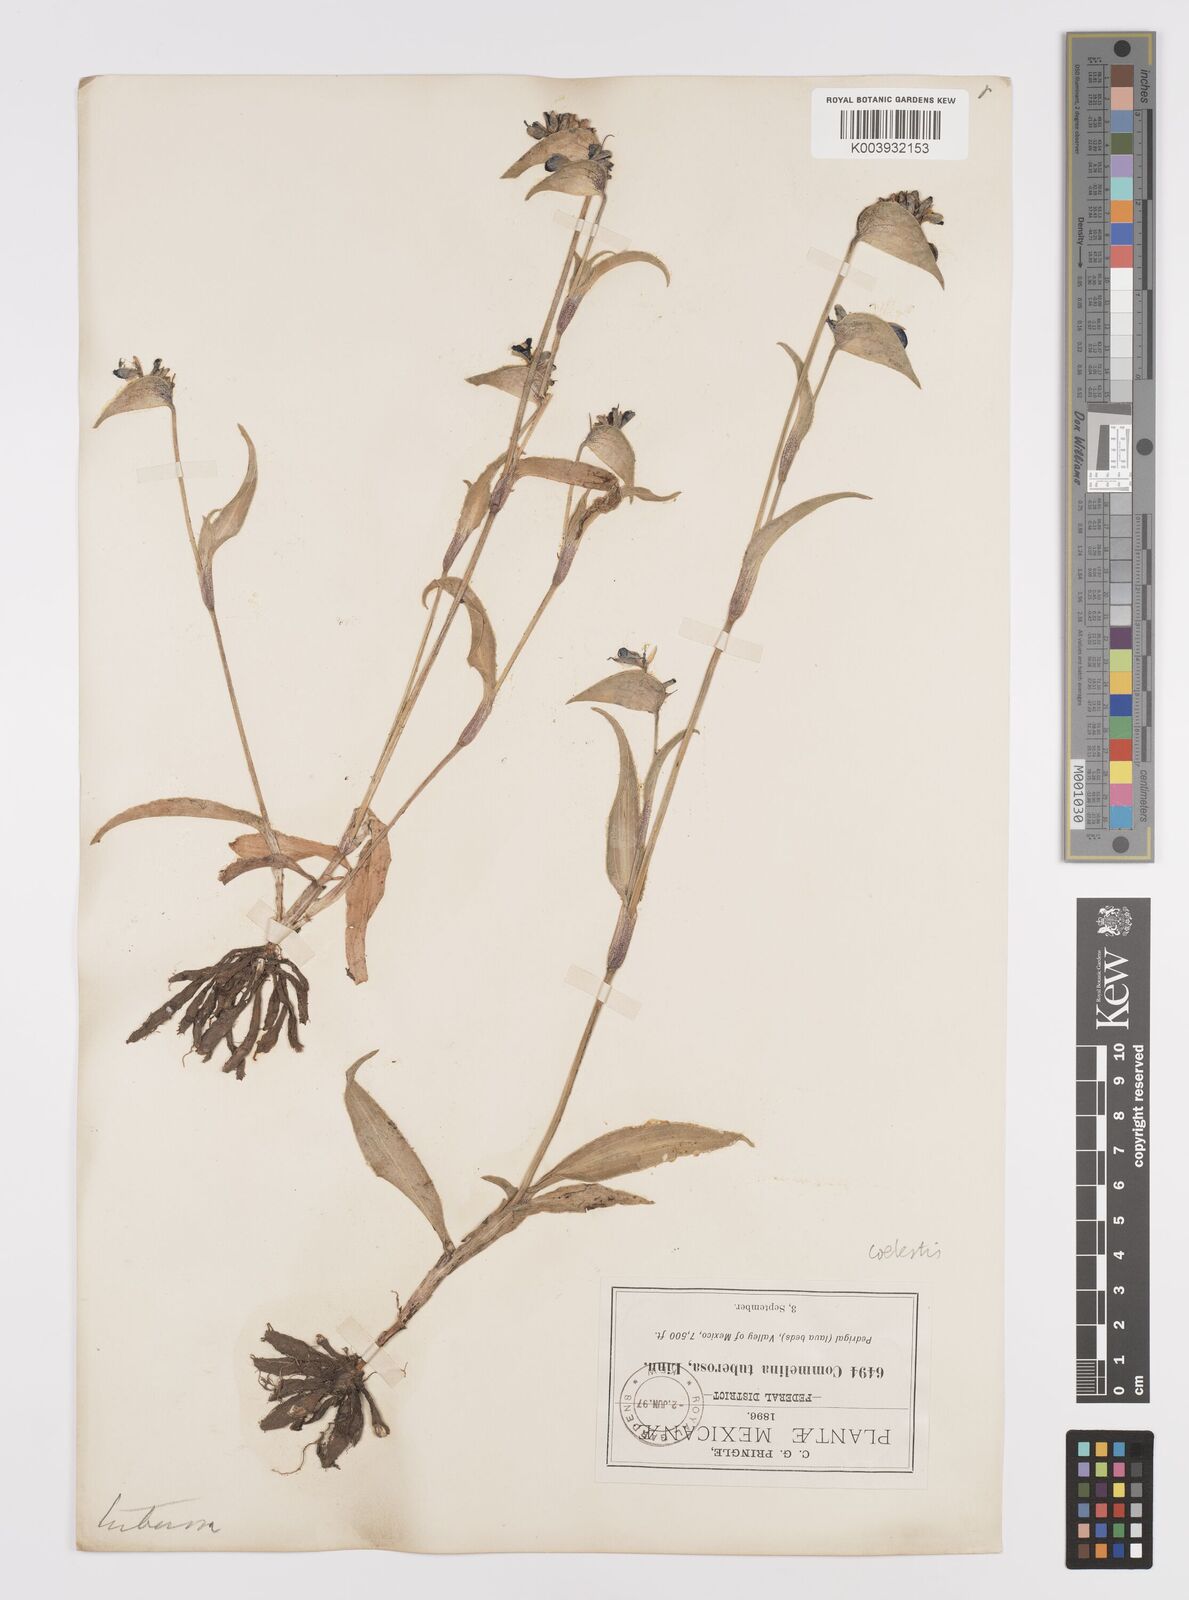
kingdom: Plantae
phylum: Tracheophyta
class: Liliopsida
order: Commelinales
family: Commelinaceae
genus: Commelina
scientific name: Commelina standleyi
